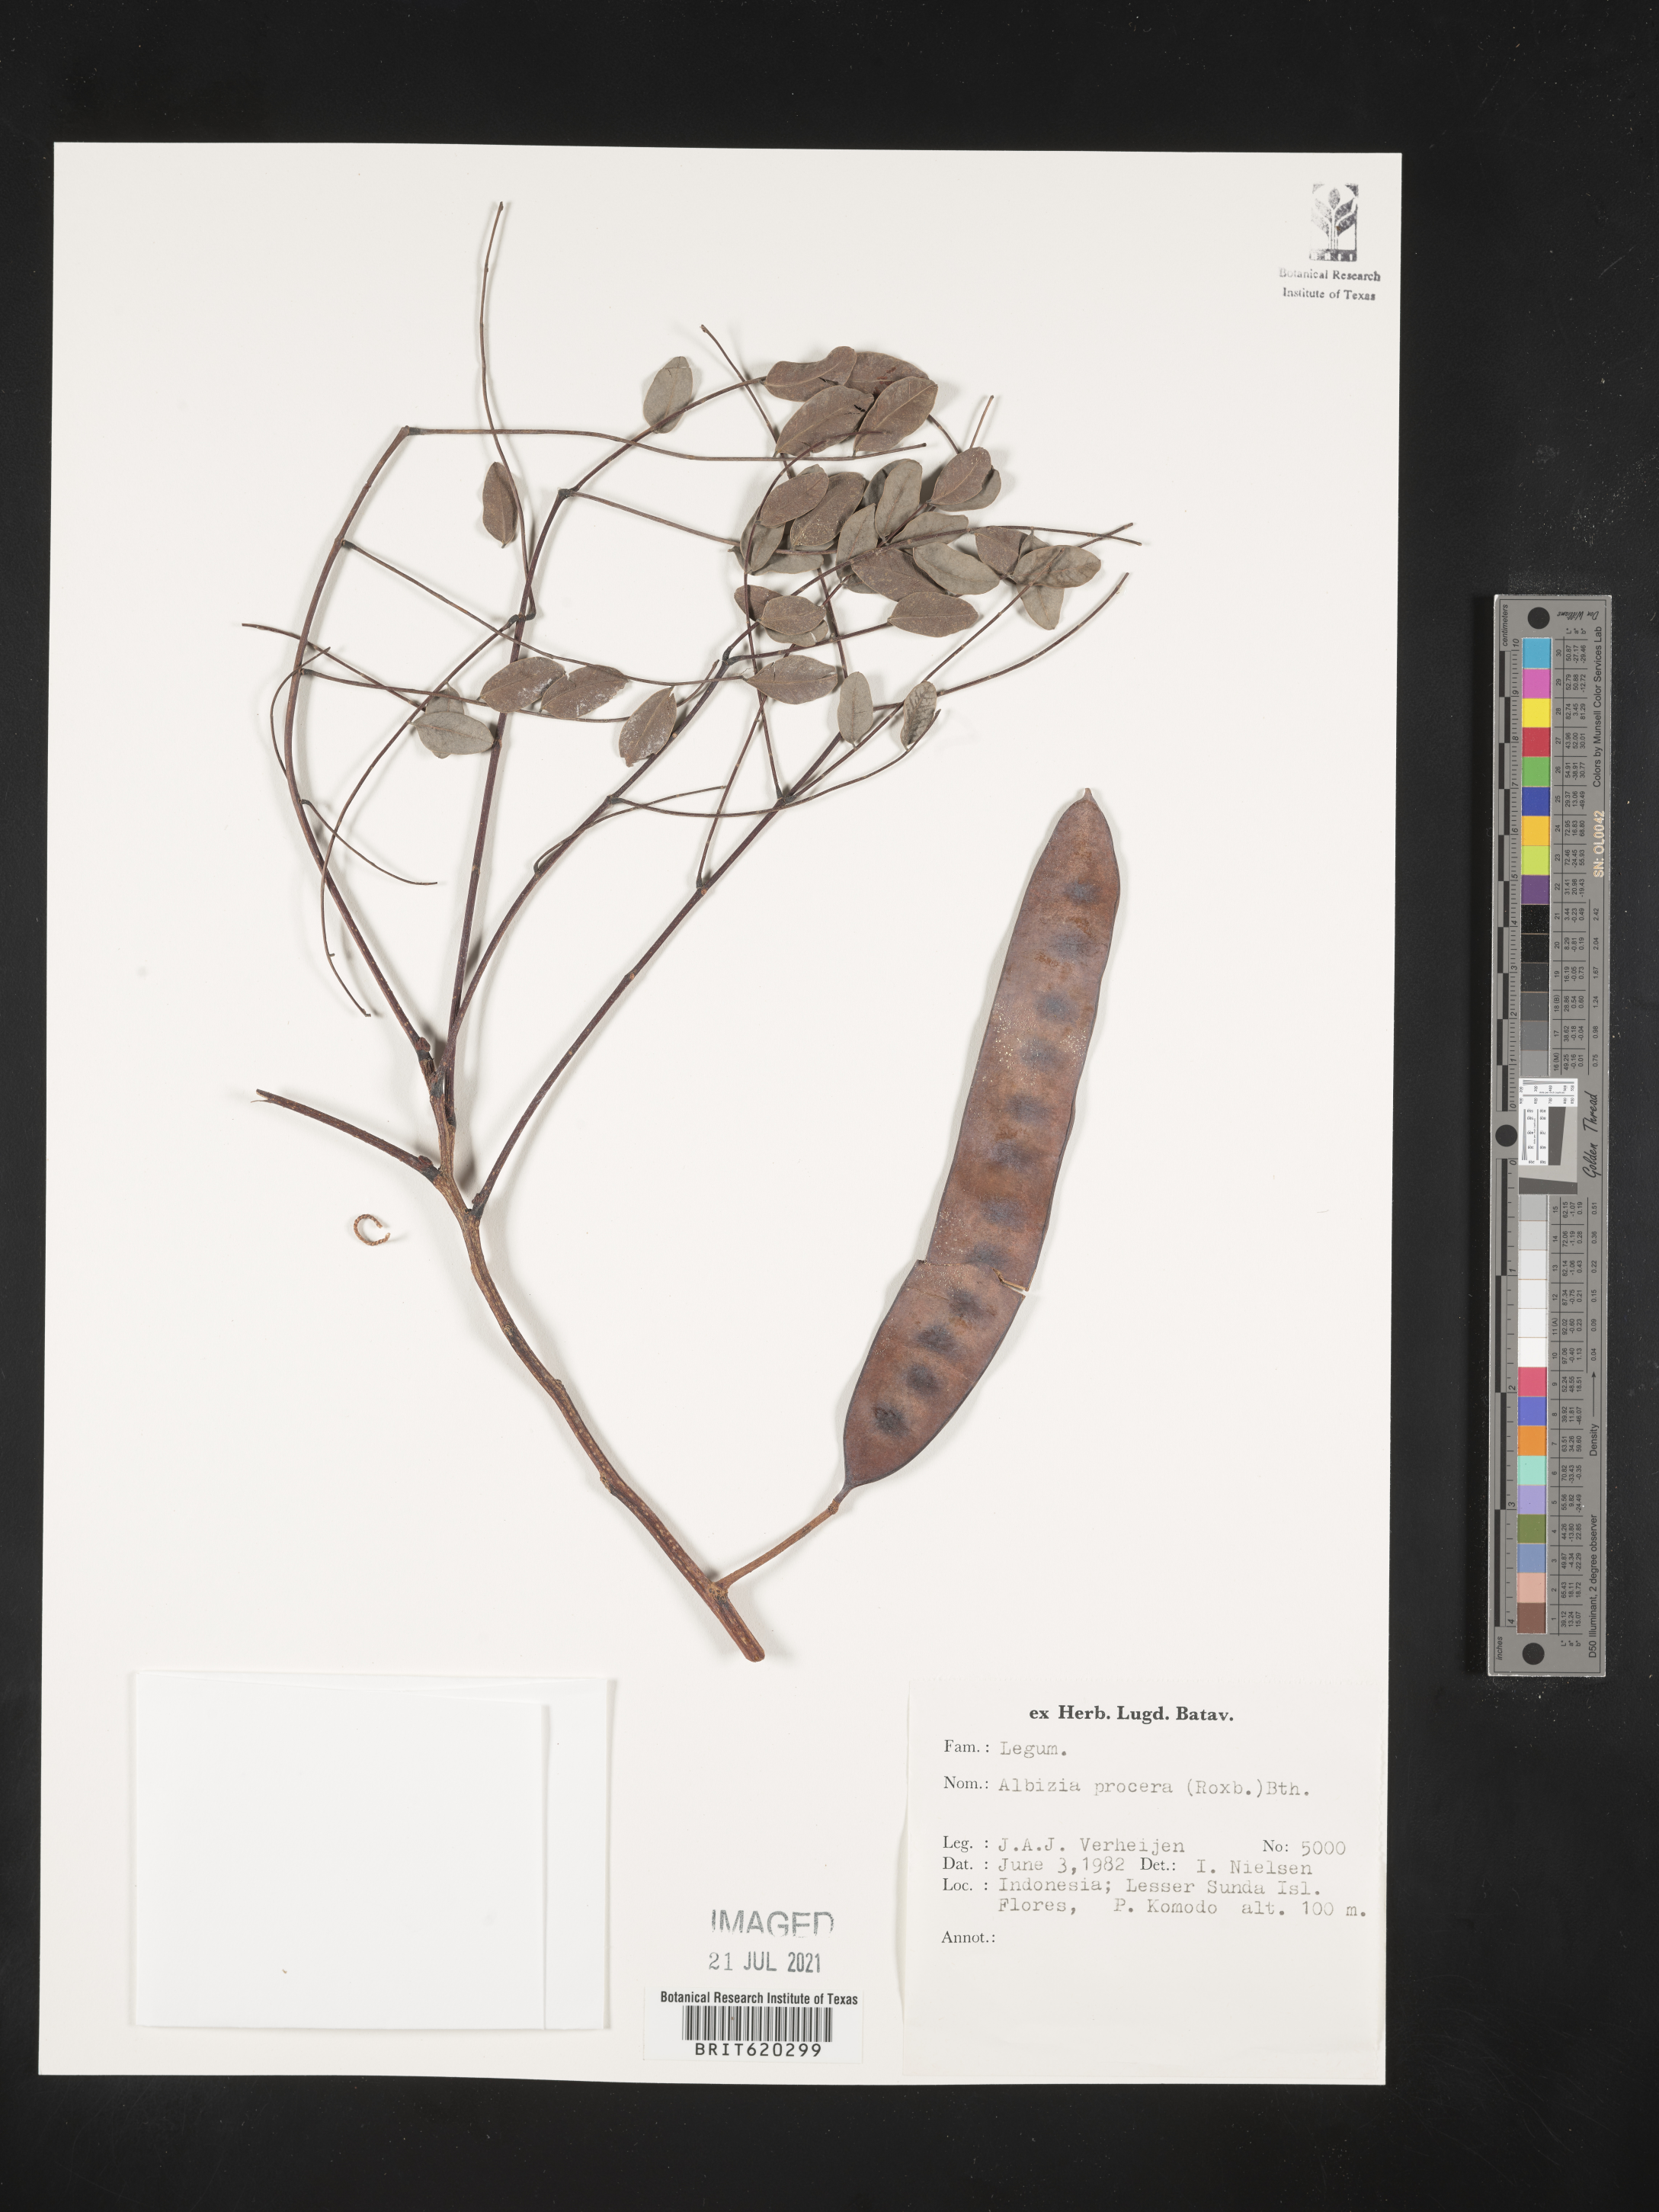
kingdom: Plantae
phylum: Tracheophyta
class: Magnoliopsida
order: Fabales
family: Fabaceae
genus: Albizia
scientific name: Albizia procera
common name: Tall albizia
